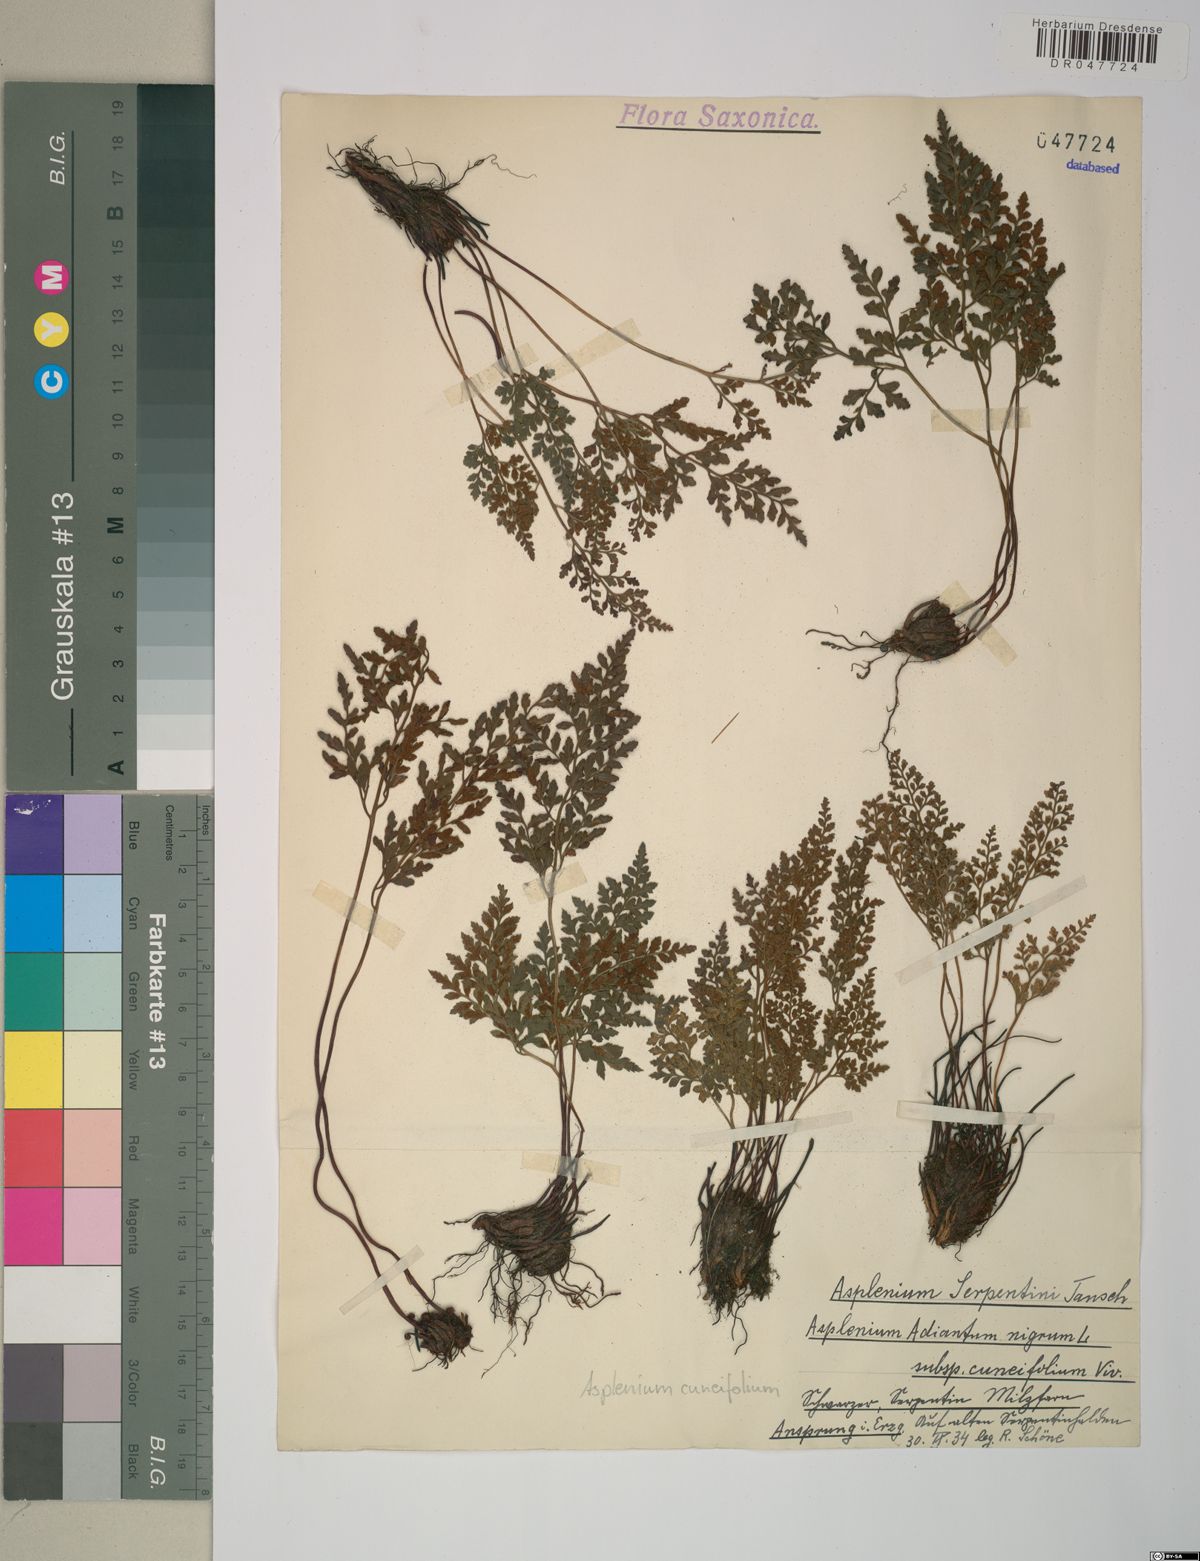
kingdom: Plantae
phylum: Tracheophyta
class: Polypodiopsida
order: Polypodiales
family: Aspleniaceae
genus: Asplenium
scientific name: Asplenium cuneifolium
